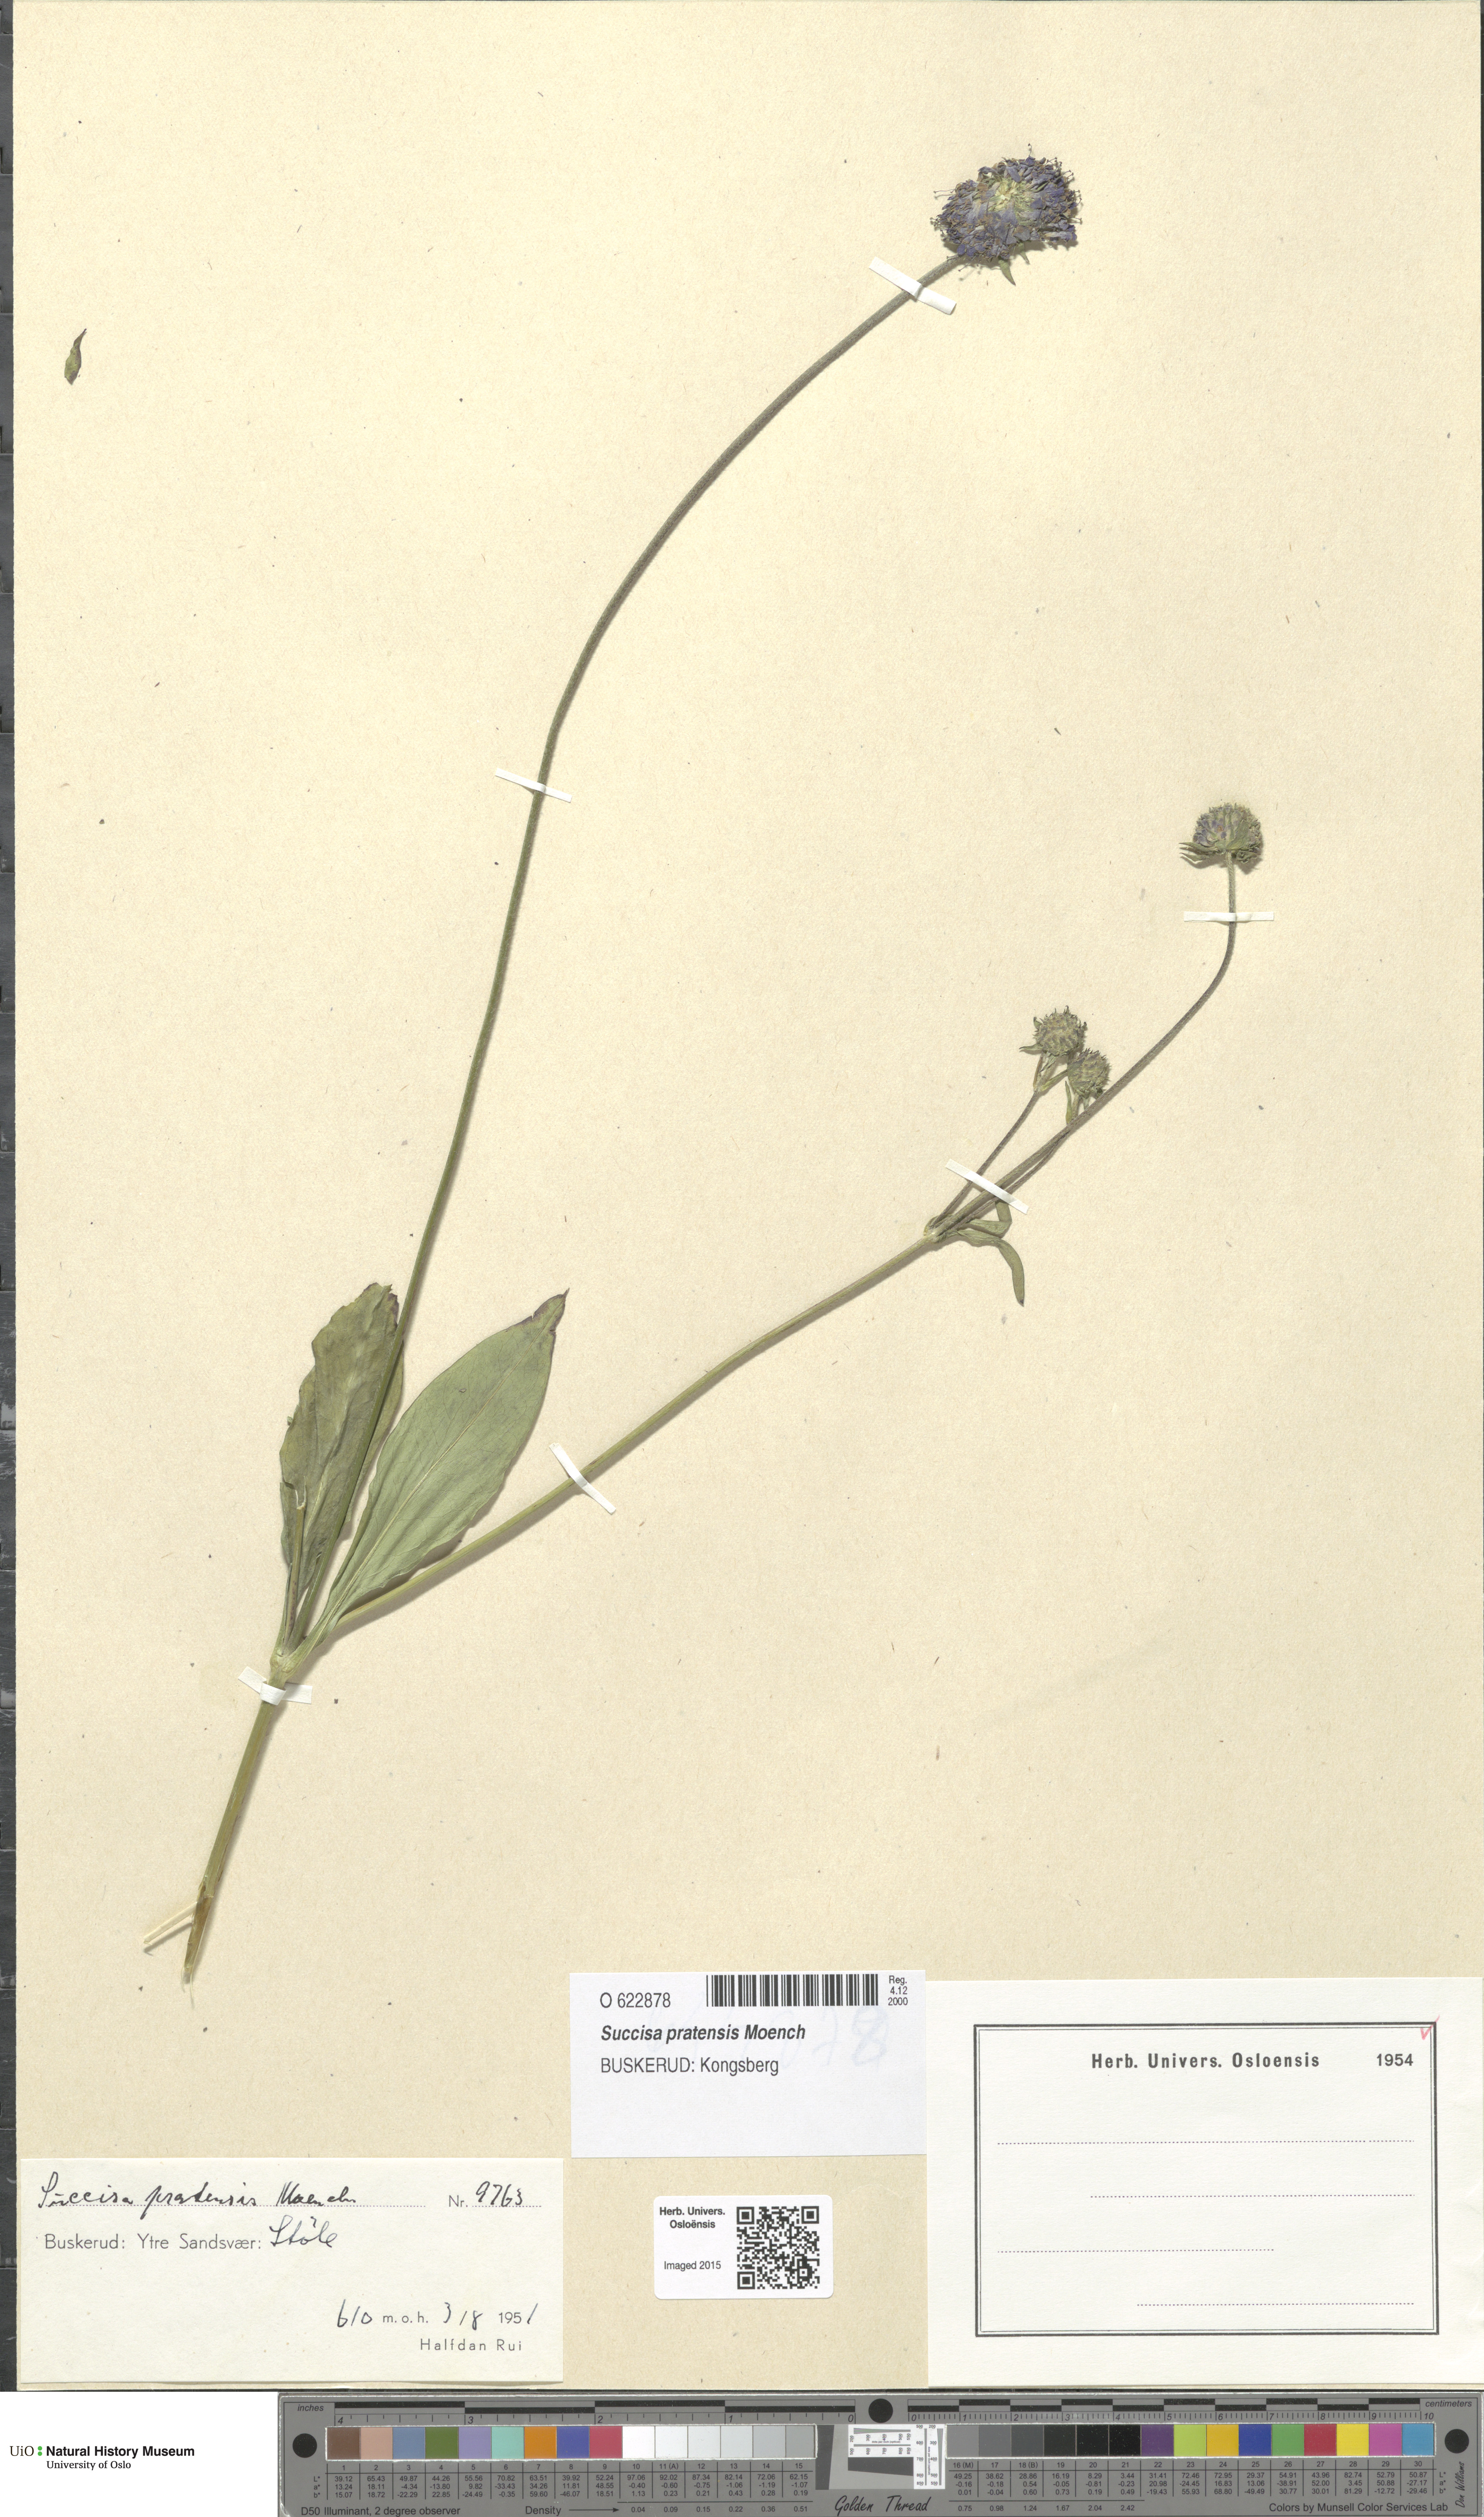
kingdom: Plantae
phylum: Tracheophyta
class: Magnoliopsida
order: Dipsacales
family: Caprifoliaceae
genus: Succisa
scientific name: Succisa pratensis
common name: Devil's-bit
